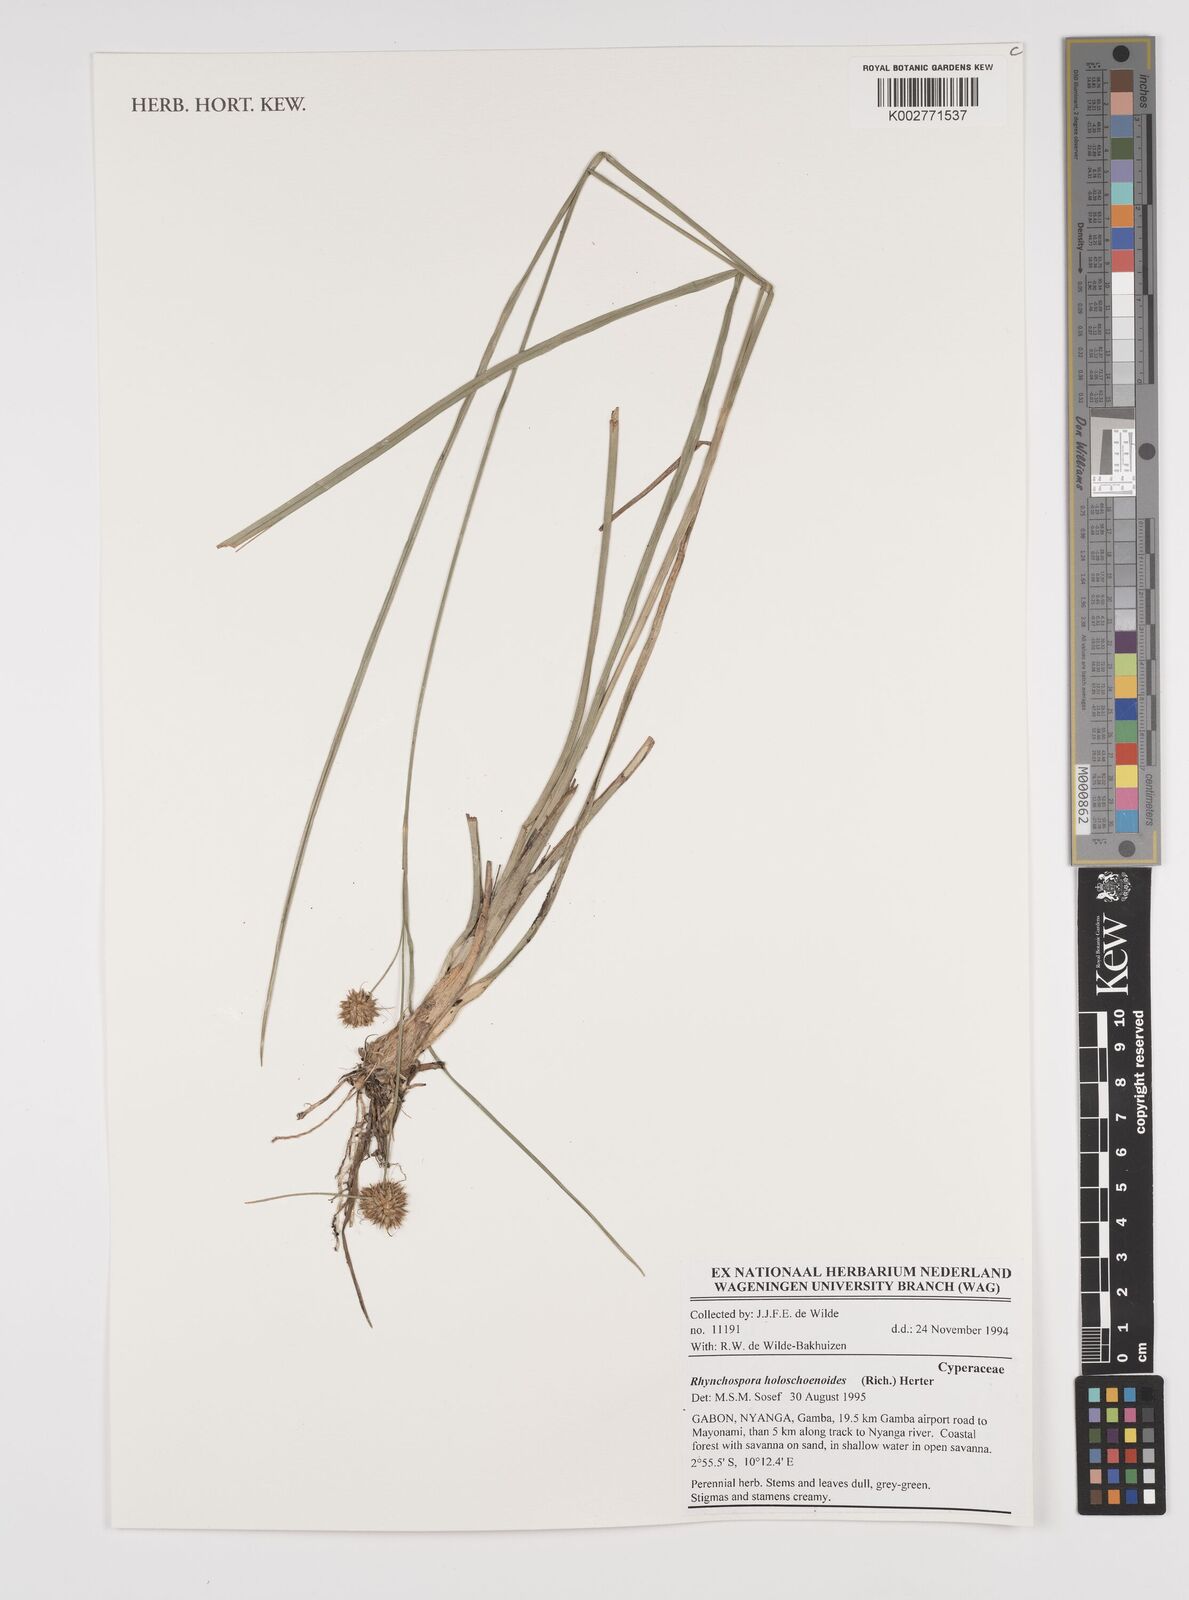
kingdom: Plantae
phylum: Tracheophyta
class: Liliopsida
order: Poales
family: Cyperaceae
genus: Rhynchospora
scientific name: Rhynchospora holoschoenoides
